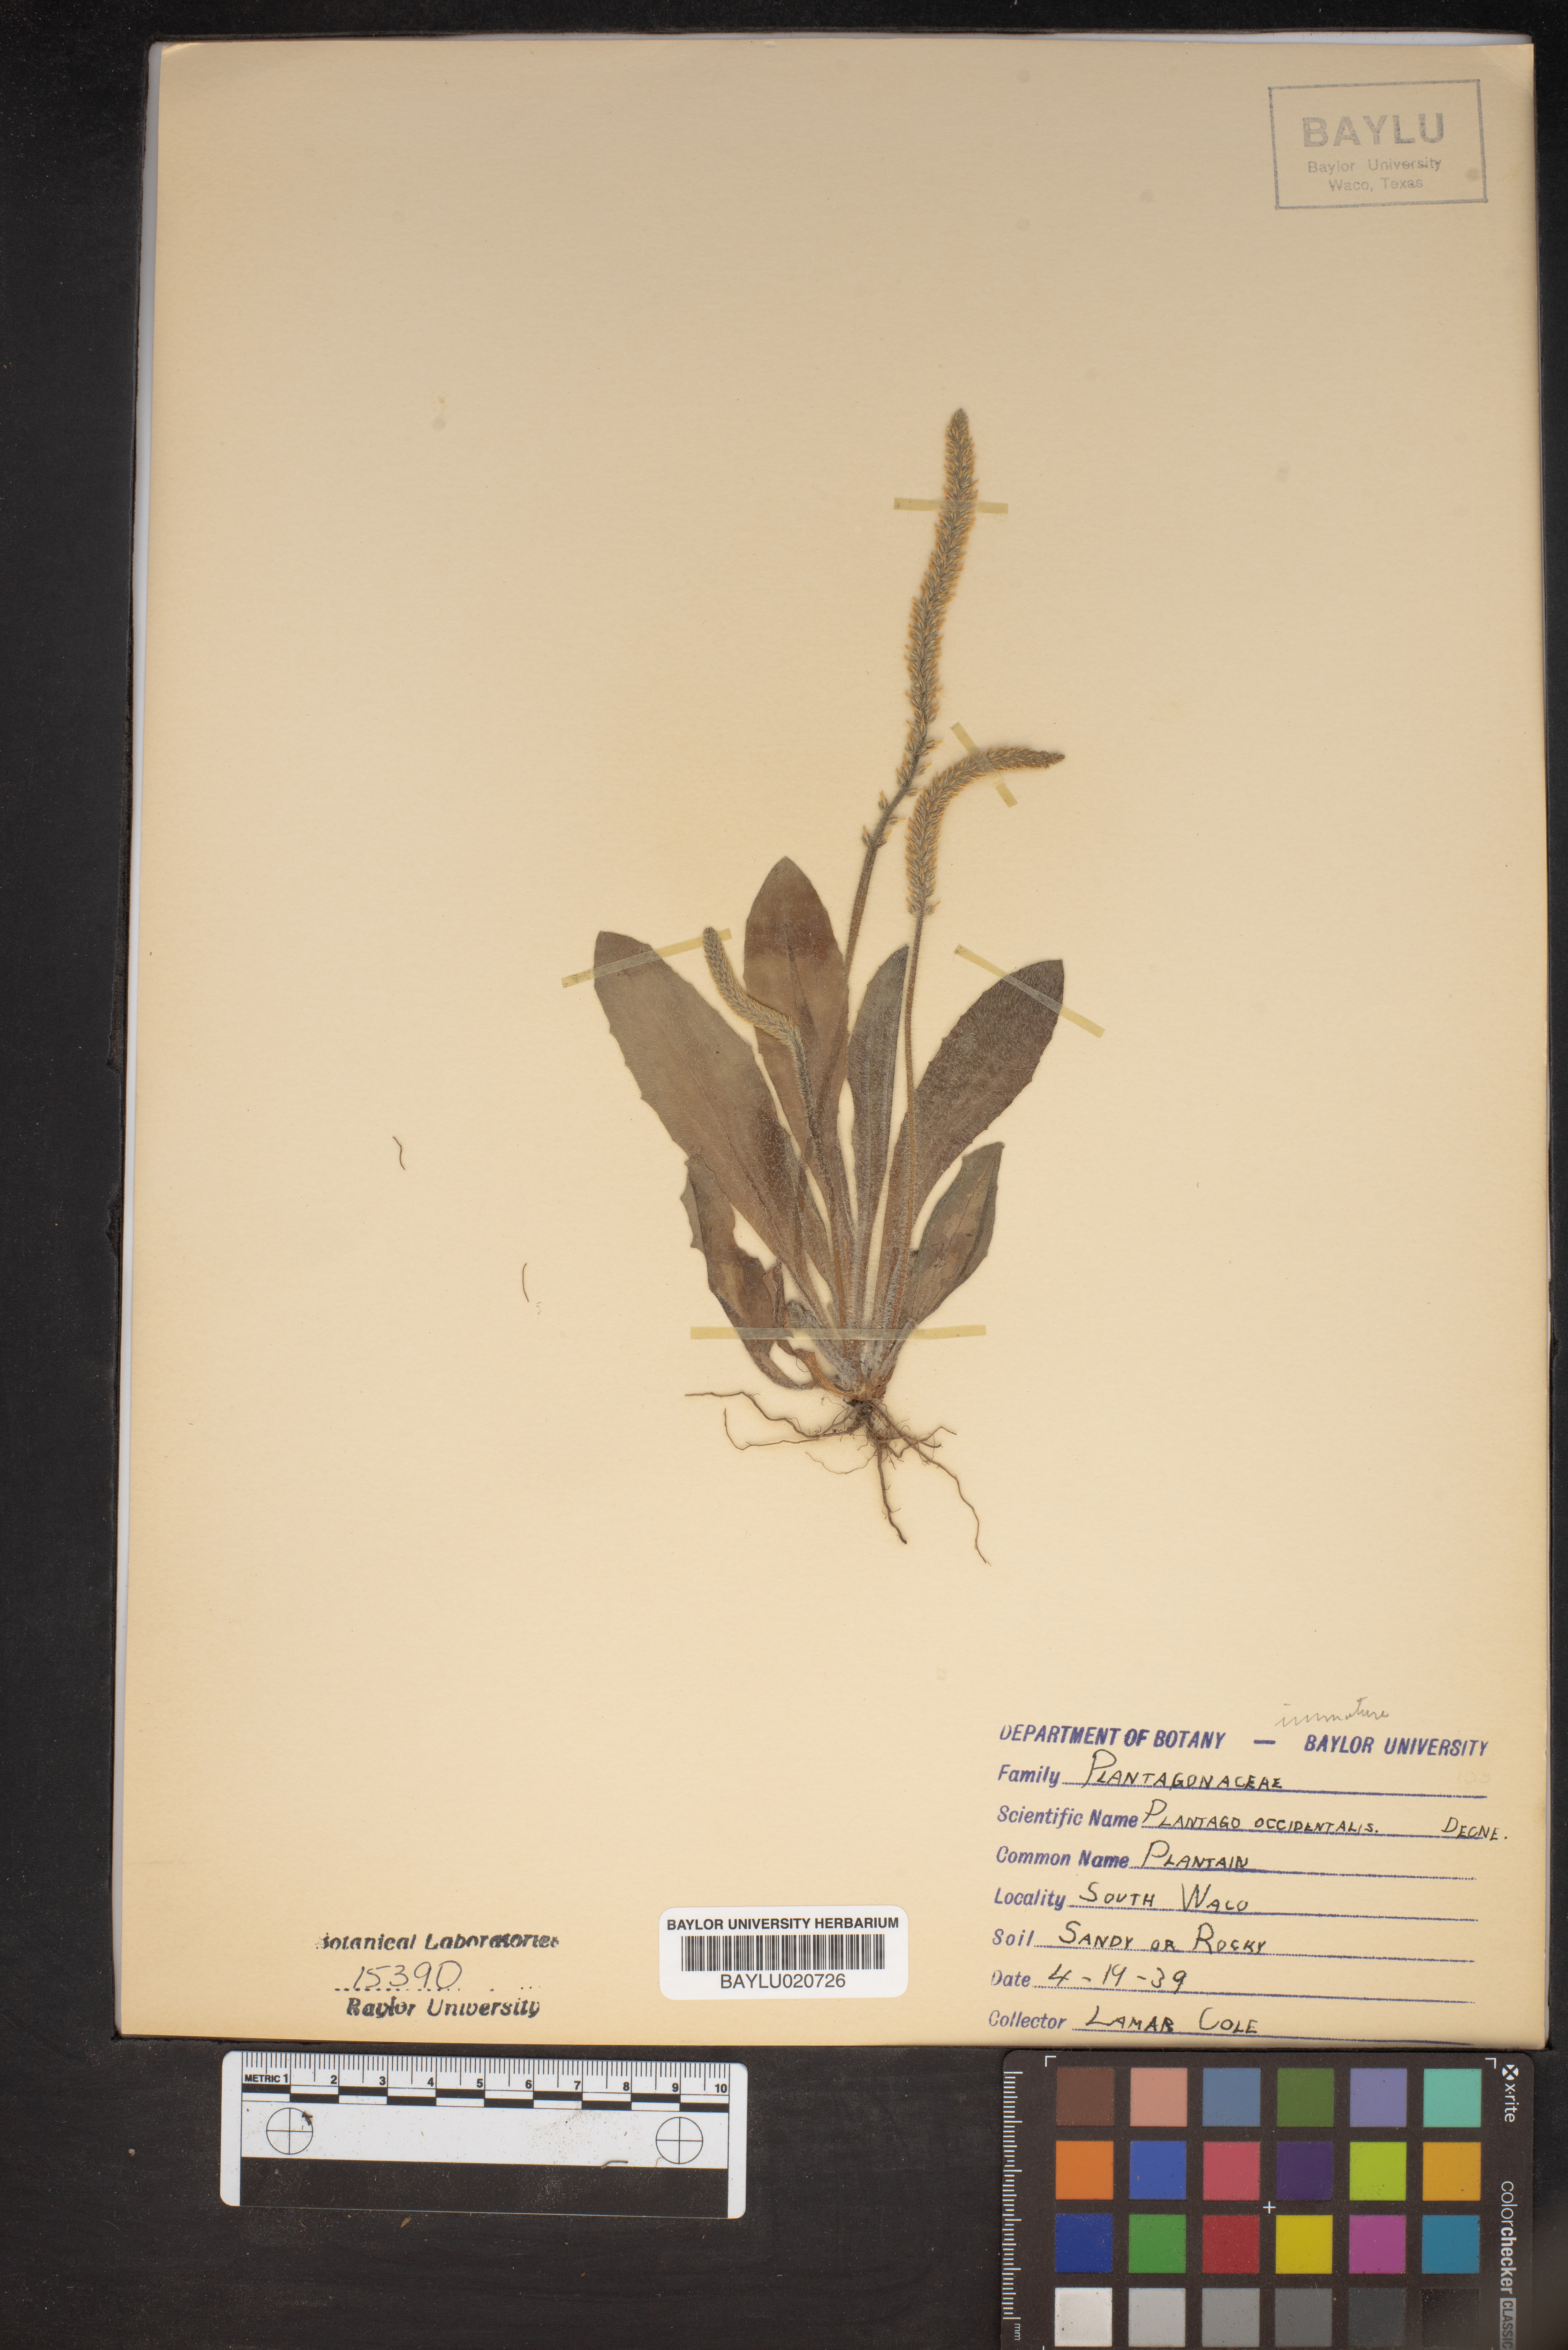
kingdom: Plantae
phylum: Tracheophyta
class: Magnoliopsida
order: Lamiales
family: Plantaginaceae
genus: Plantago
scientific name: Plantago myosuros
